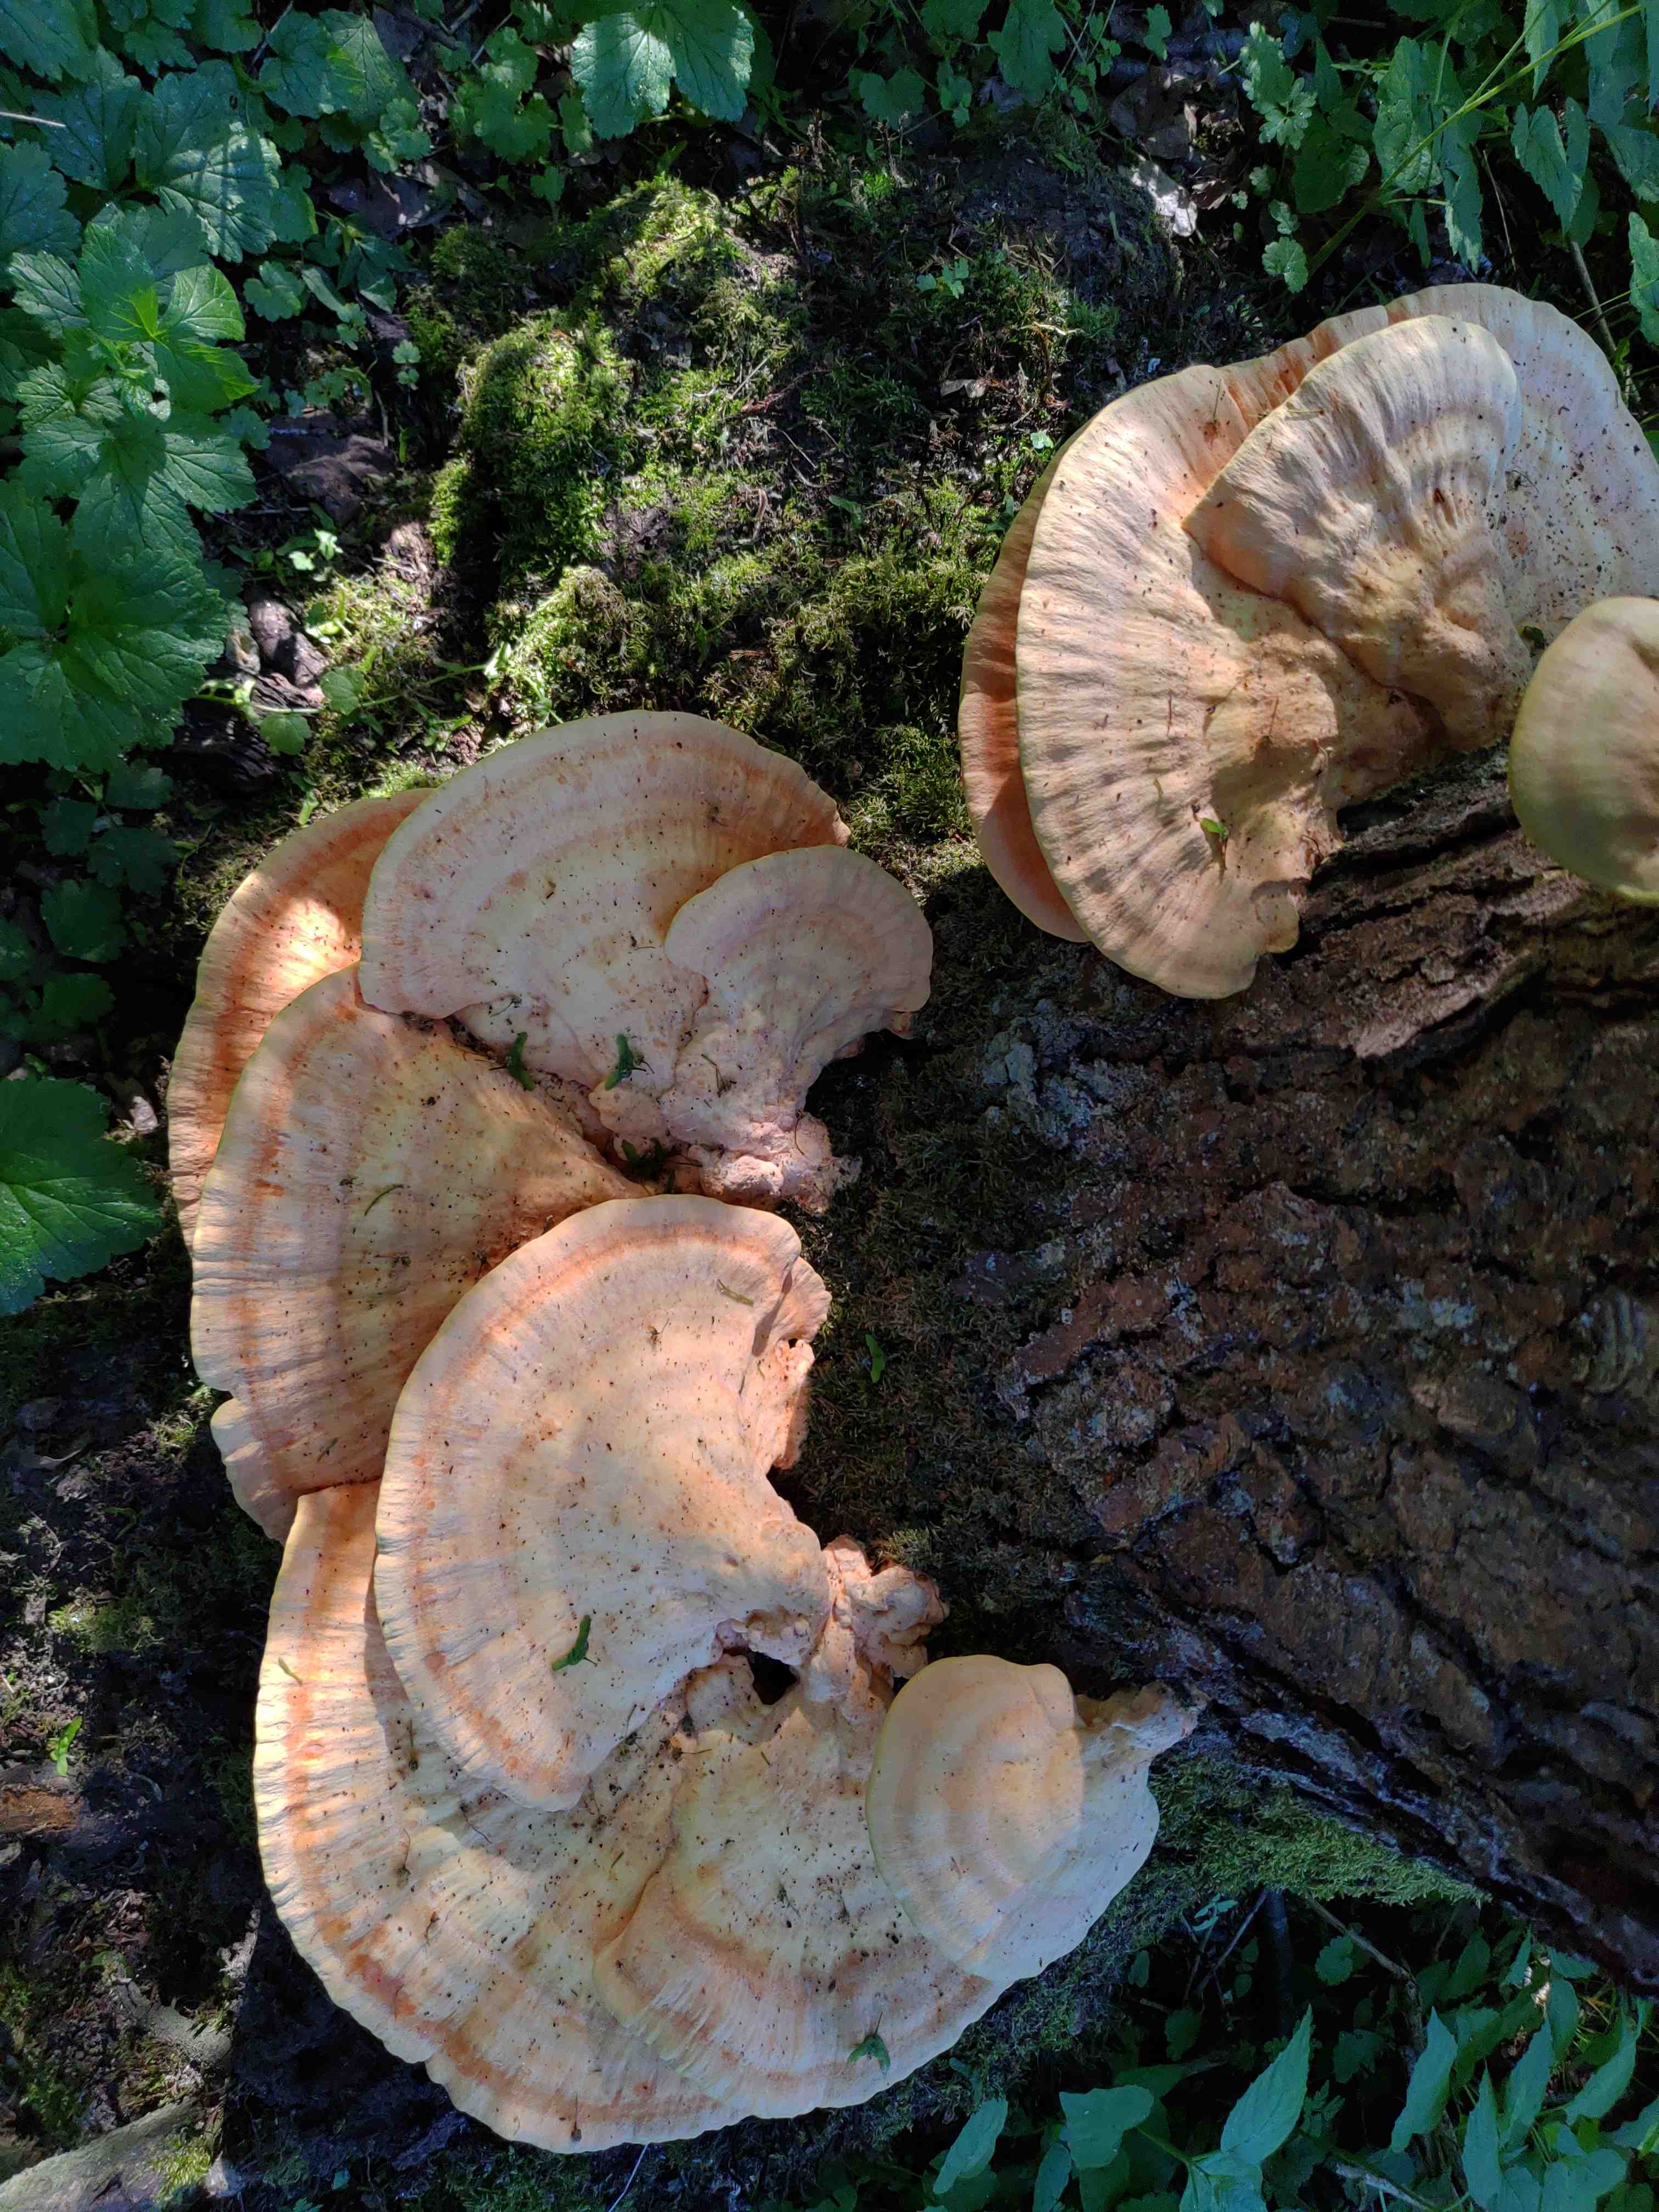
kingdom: Fungi
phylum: Basidiomycota
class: Agaricomycetes
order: Polyporales
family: Laetiporaceae
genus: Laetiporus
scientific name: Laetiporus sulphureus
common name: svovlporesvamp
